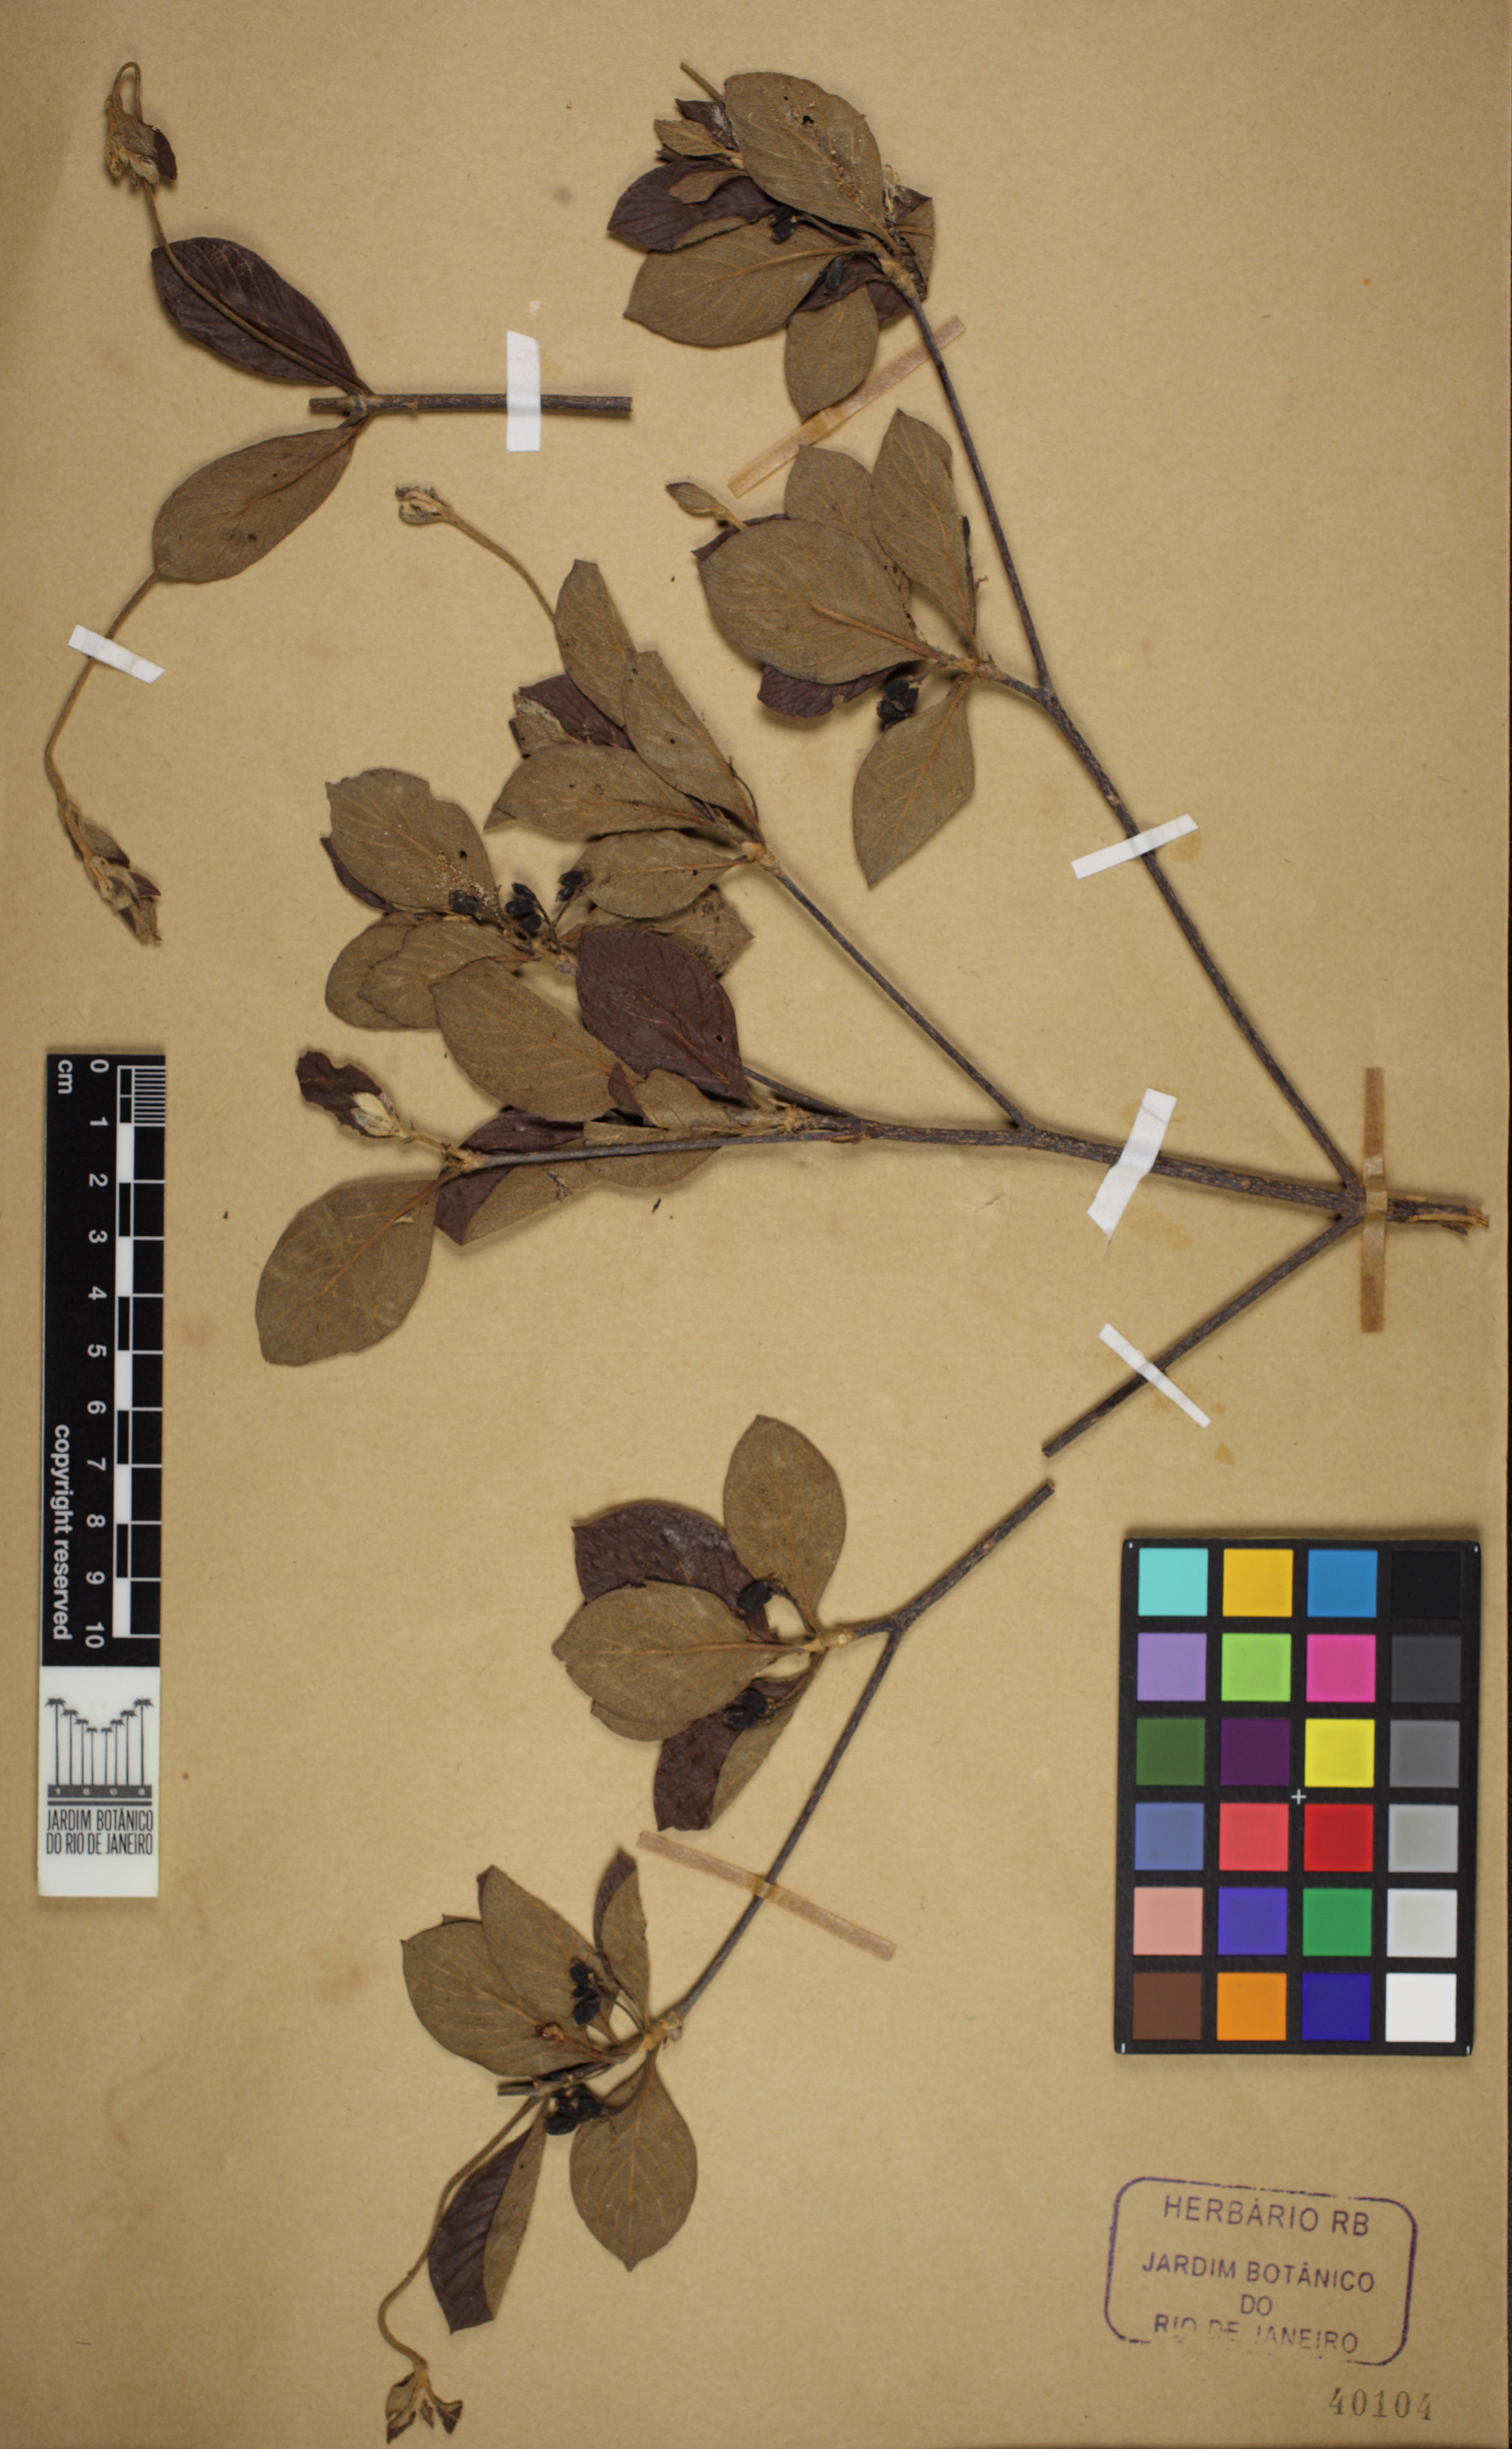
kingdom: Plantae
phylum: Tracheophyta
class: Magnoliopsida
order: Gentianales
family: Rubiaceae
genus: Chomelia
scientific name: Chomelia ribesioides
